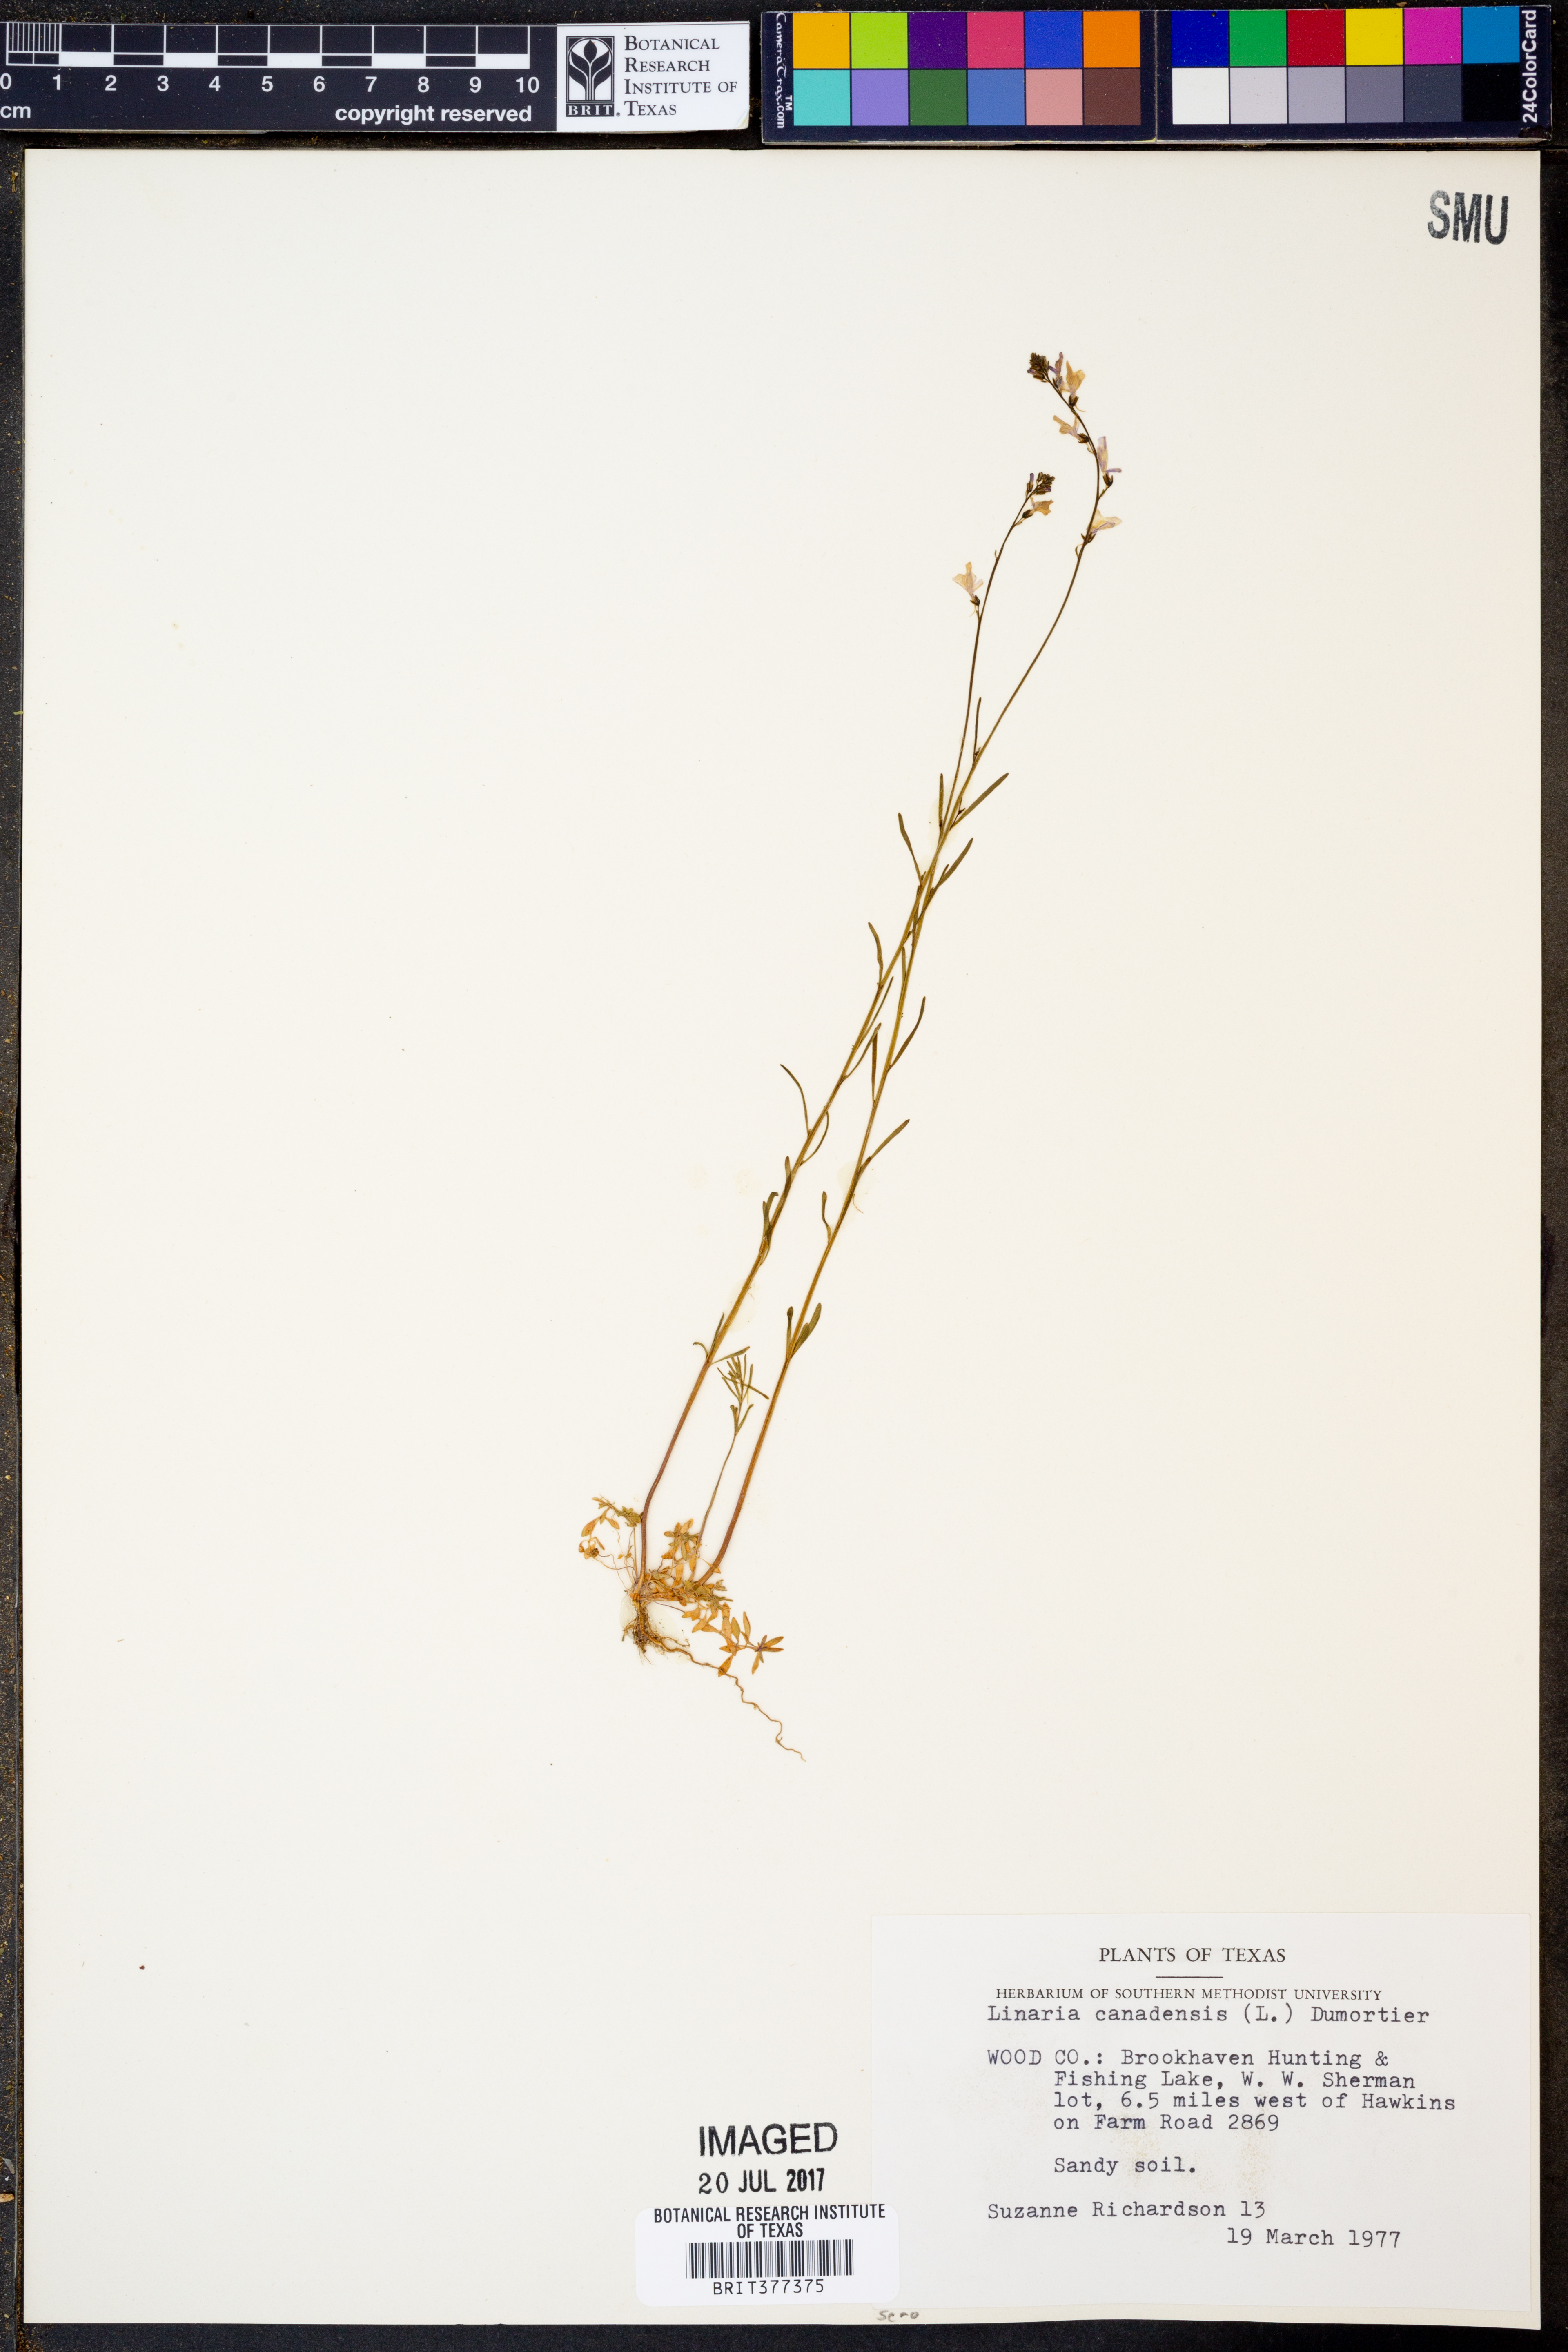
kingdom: Plantae
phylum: Tracheophyta
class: Magnoliopsida
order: Lamiales
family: Plantaginaceae
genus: Nuttallanthus
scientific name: Nuttallanthus canadensis
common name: Blue toadflax
